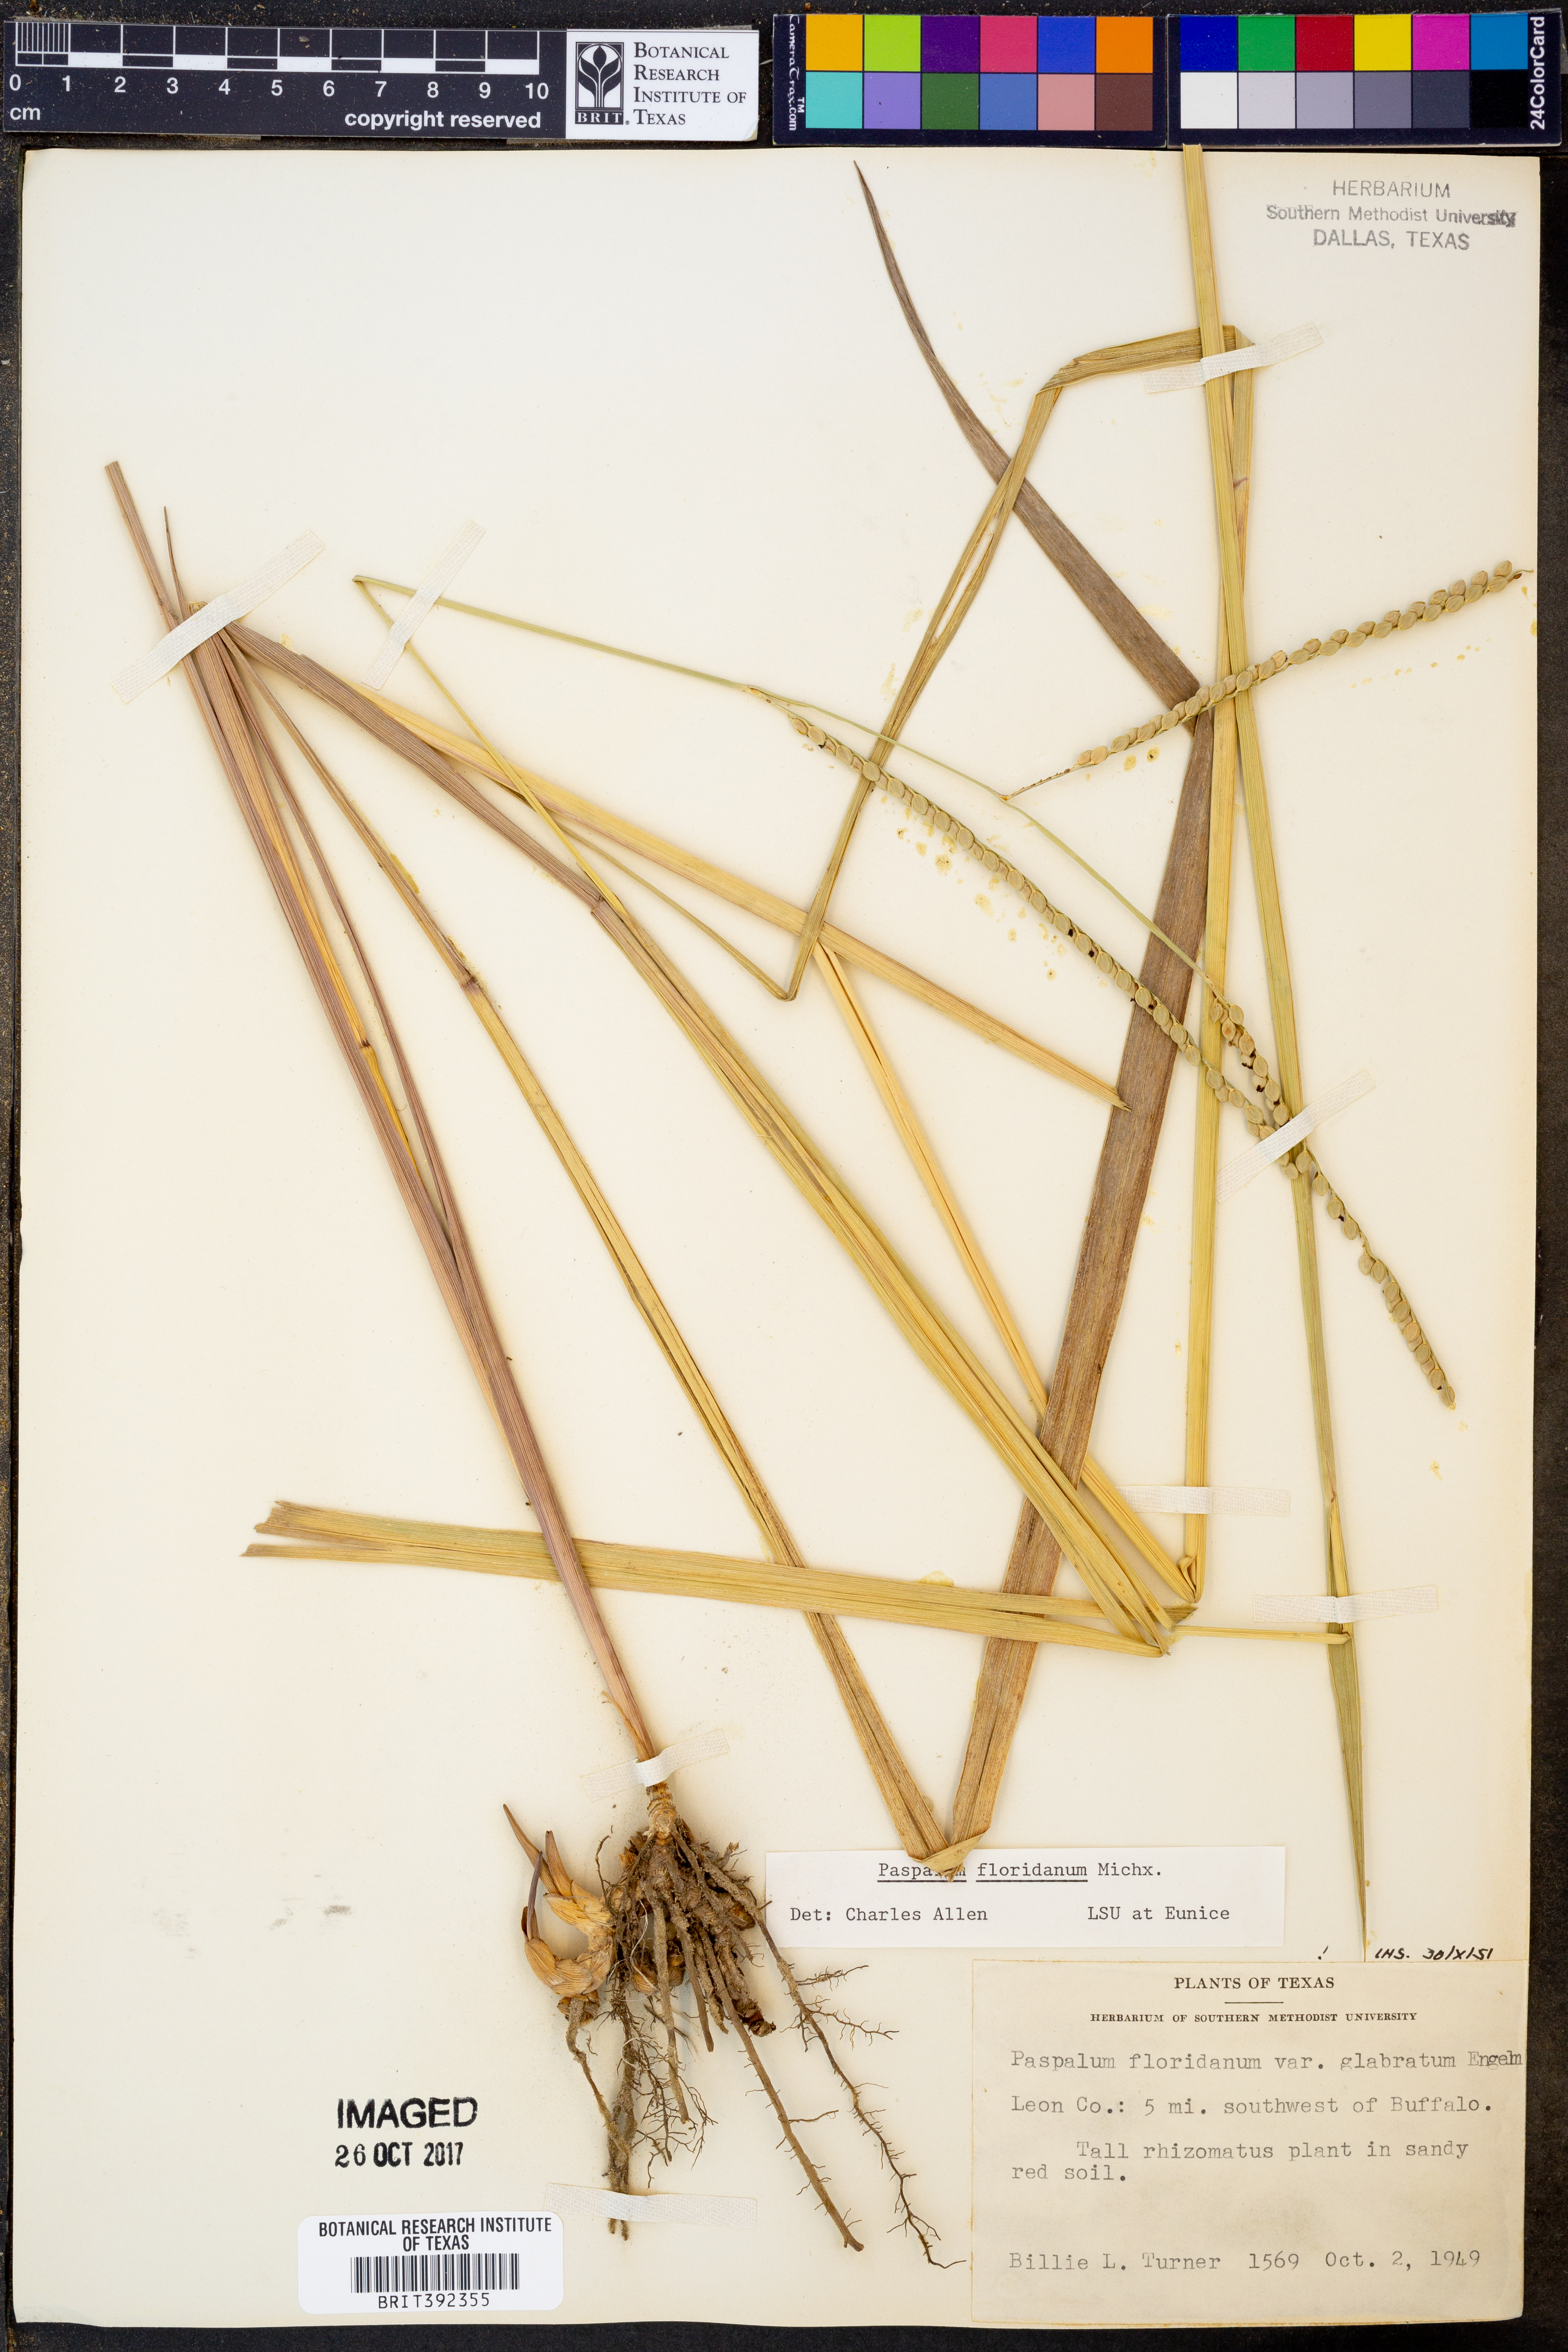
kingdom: Plantae
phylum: Tracheophyta
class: Liliopsida
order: Poales
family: Poaceae
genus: Paspalum
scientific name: Paspalum floridanum
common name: Florida paspalum
